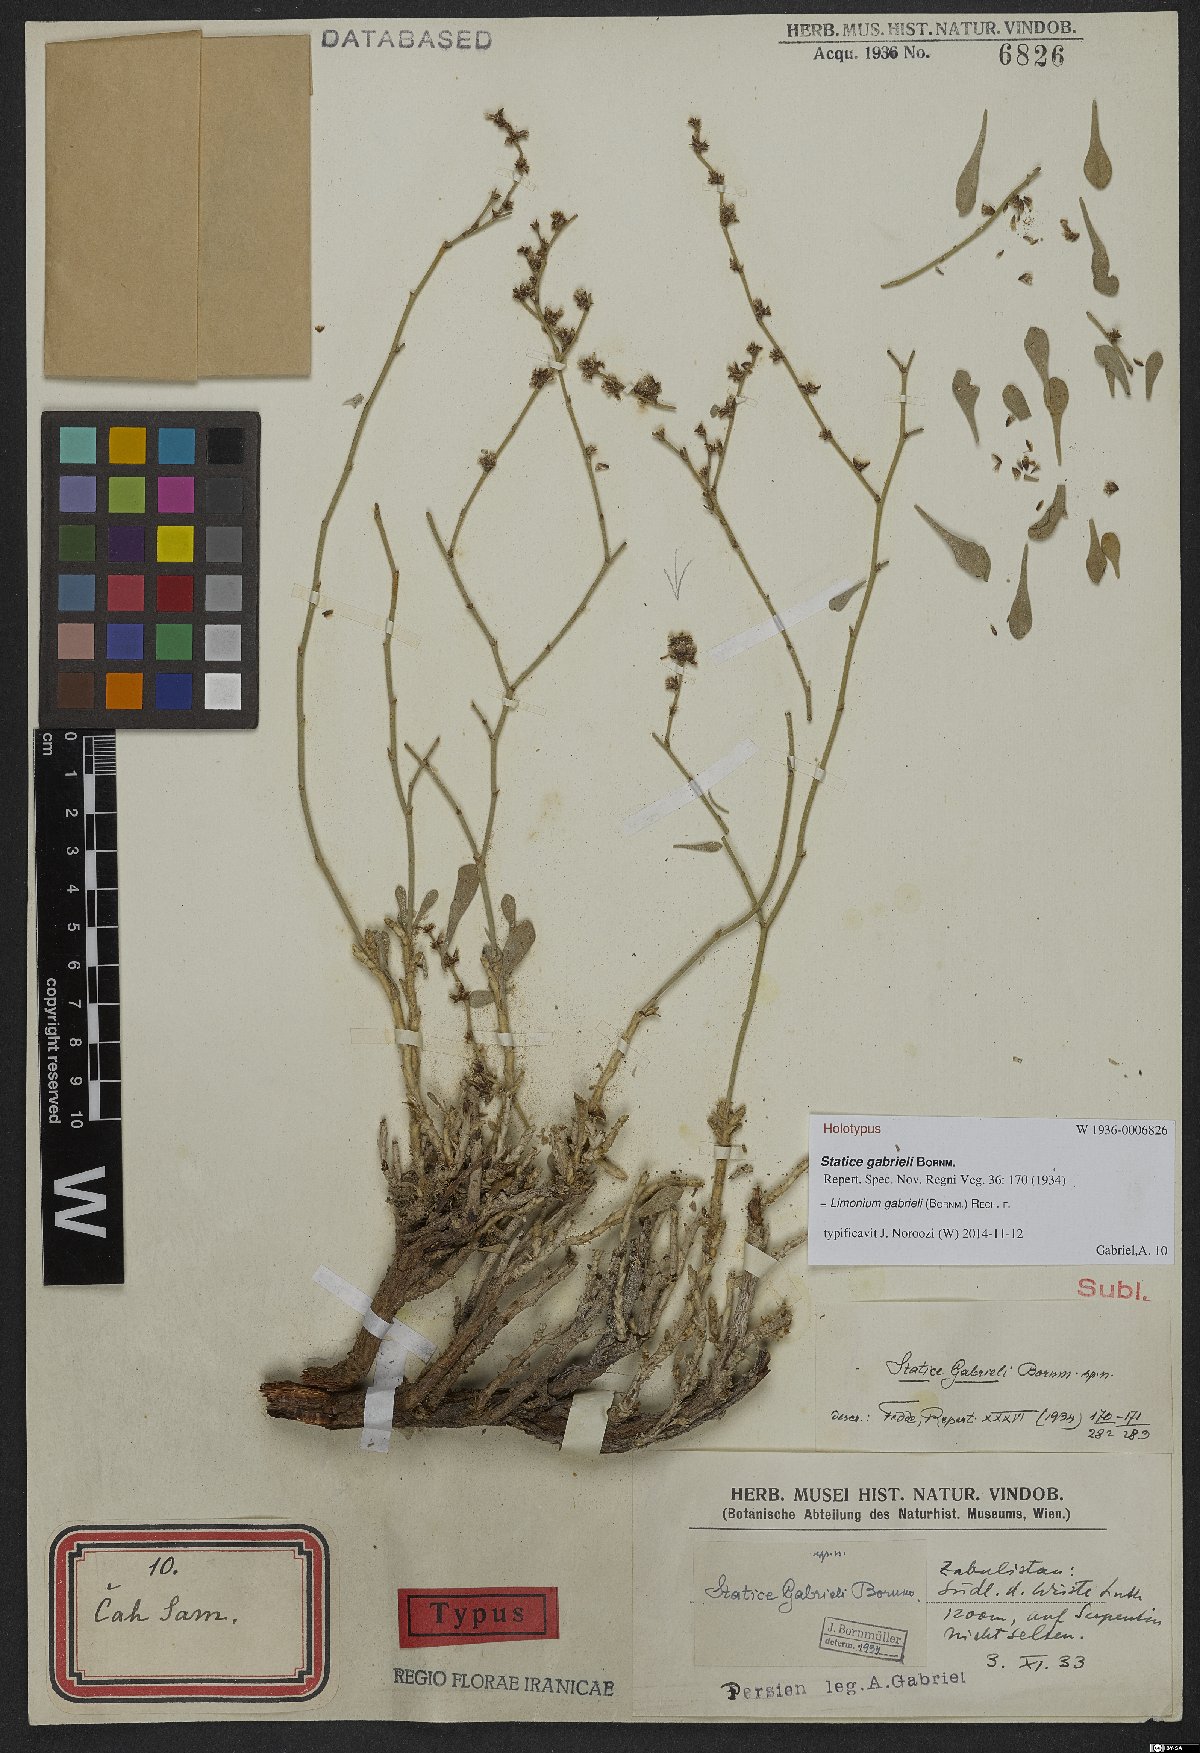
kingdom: Plantae
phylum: Tracheophyta
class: Magnoliopsida
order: Caryophyllales
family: Plumbaginaceae
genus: Limonium
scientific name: Limonium gabrieli
